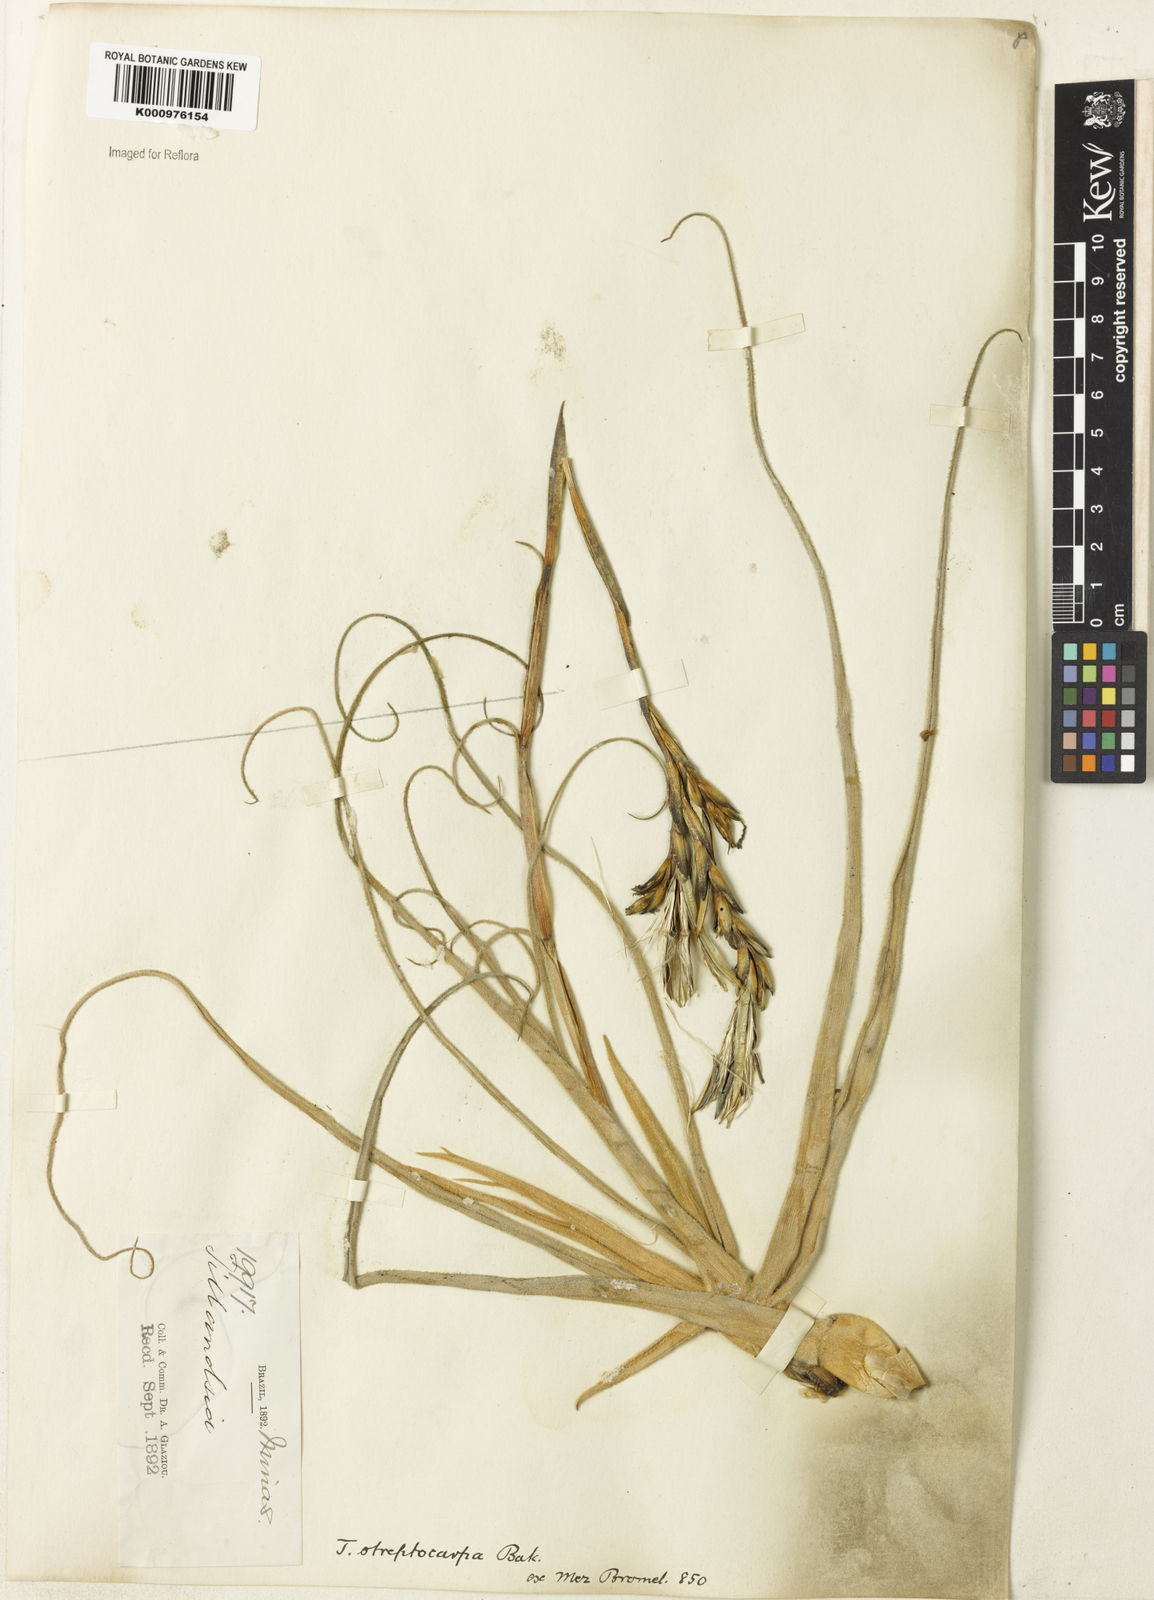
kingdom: Plantae
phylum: Tracheophyta
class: Liliopsida
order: Poales
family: Bromeliaceae
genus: Tillandsia
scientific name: Tillandsia streptocarpa
